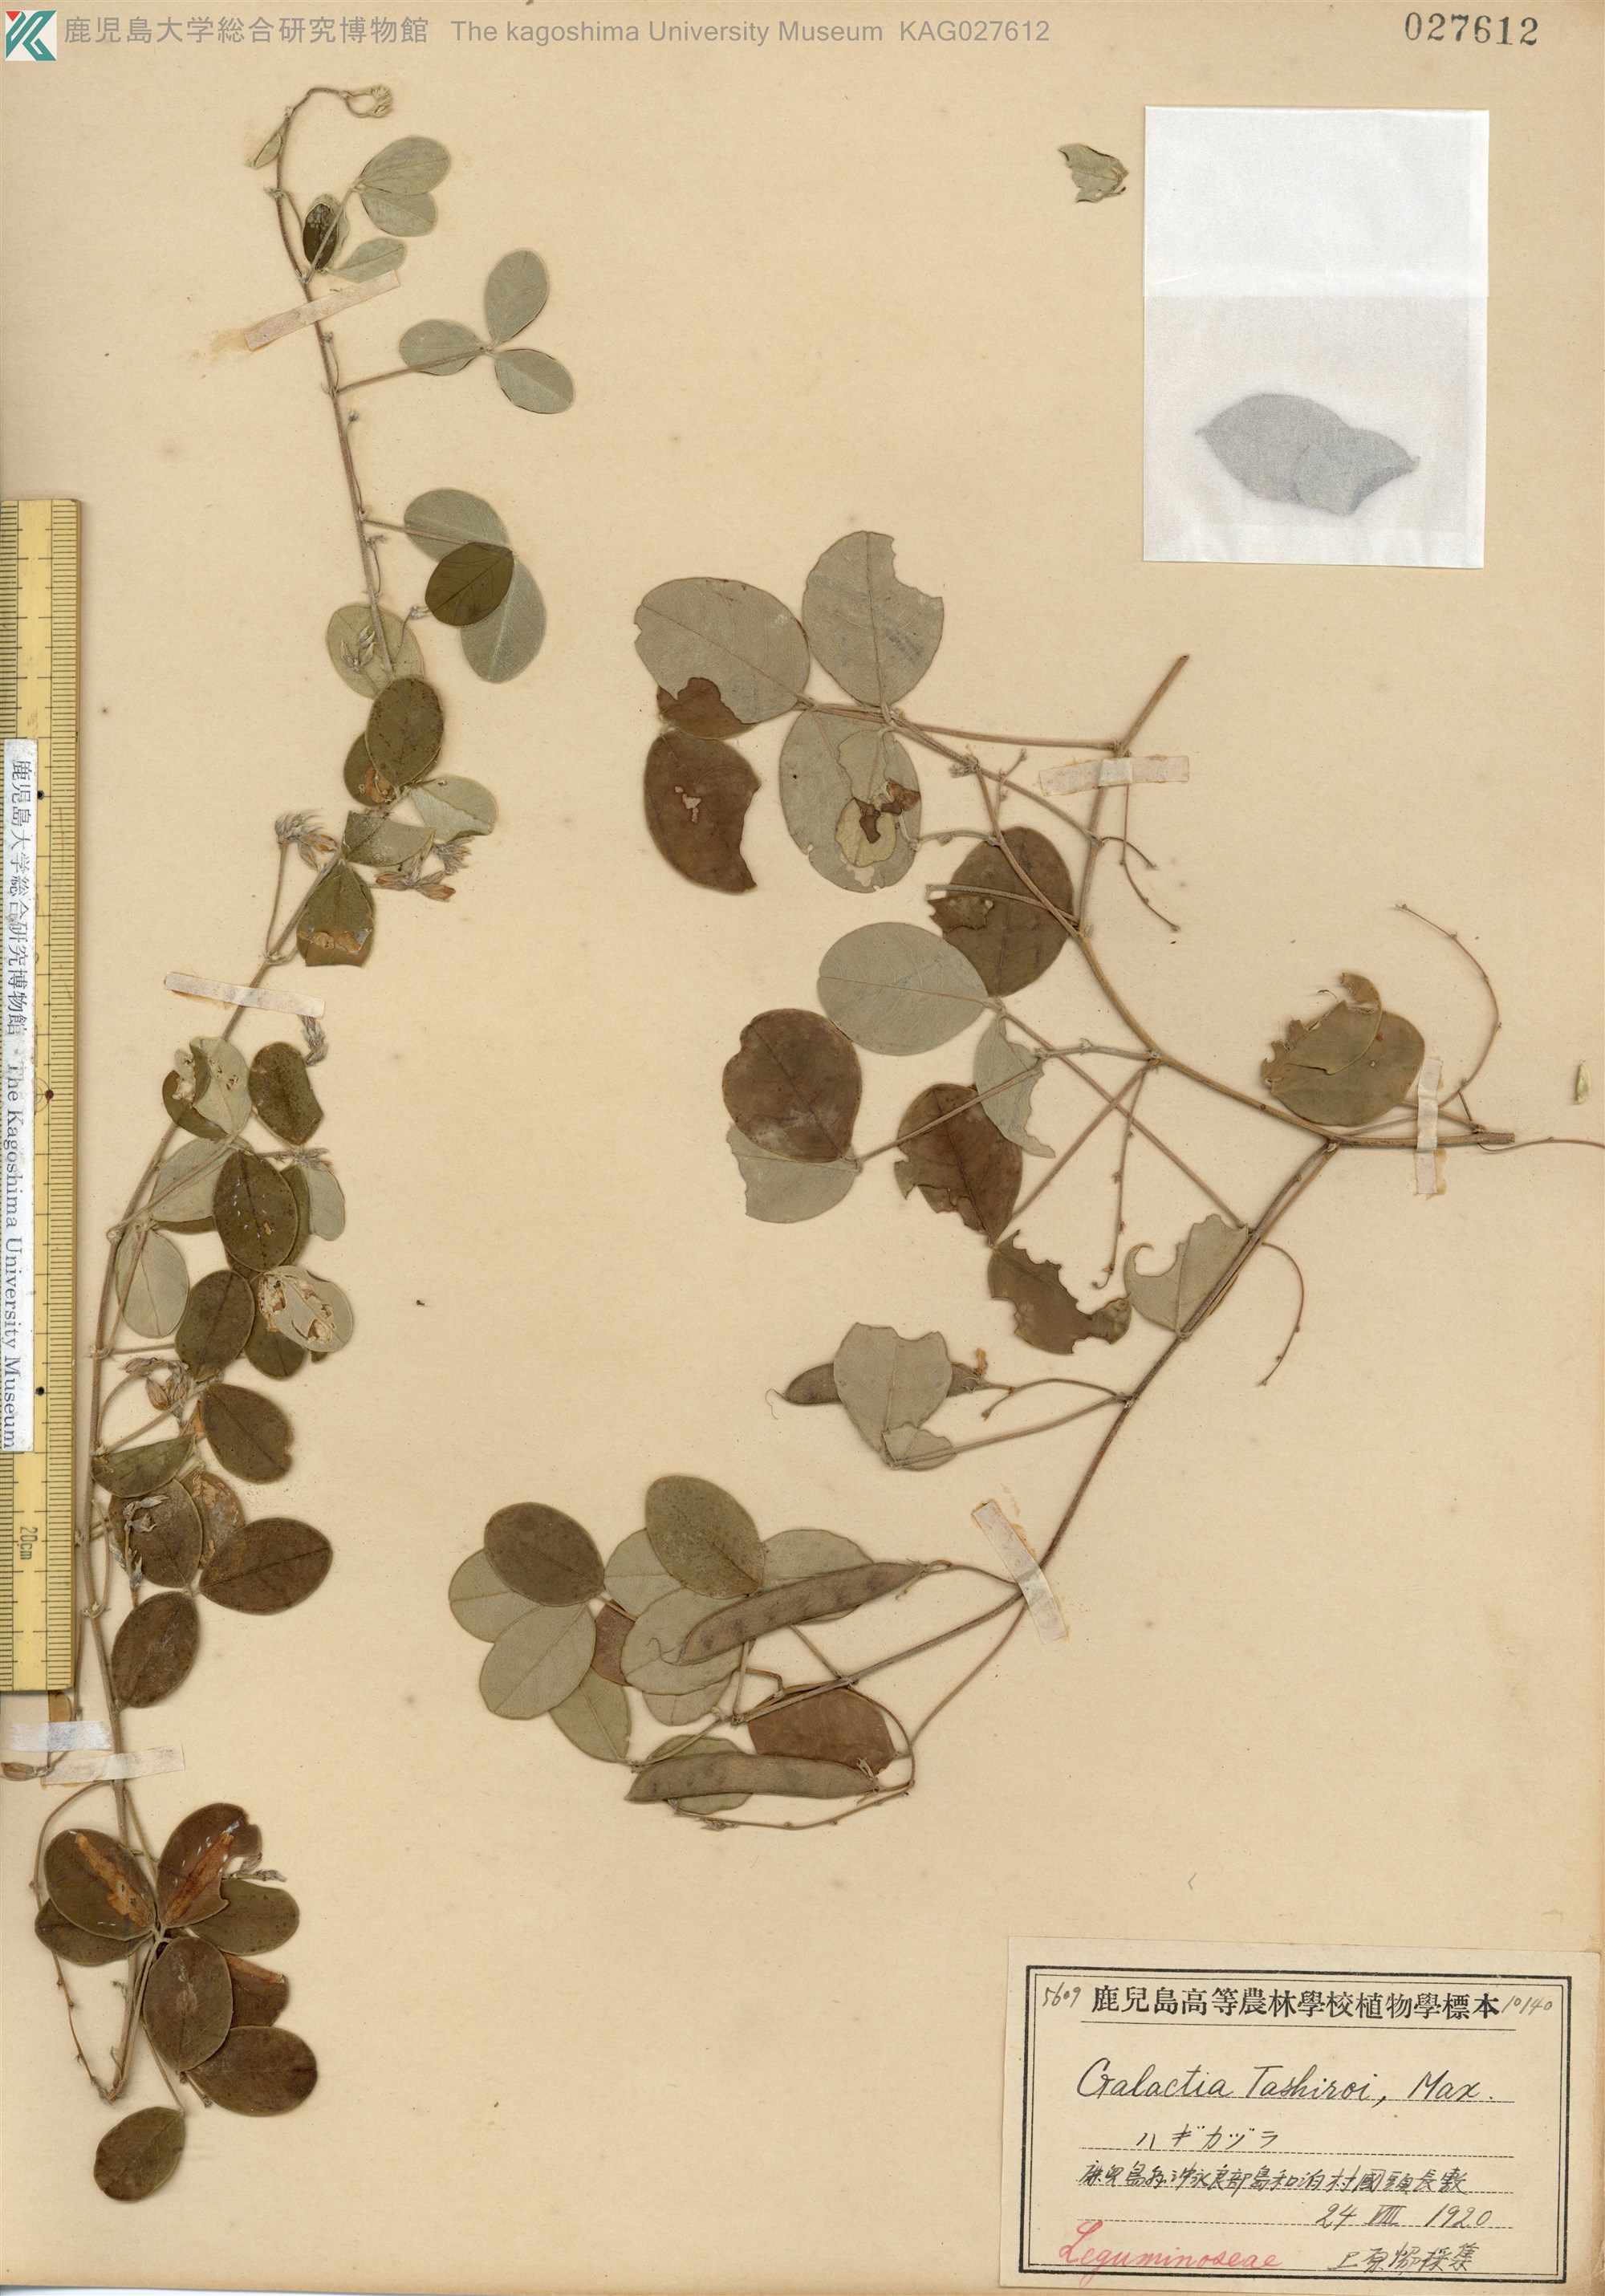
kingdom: Plantae
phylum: Tracheophyta
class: Magnoliopsida
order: Fabales
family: Fabaceae
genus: Galactia
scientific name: Galactia tashiroi
